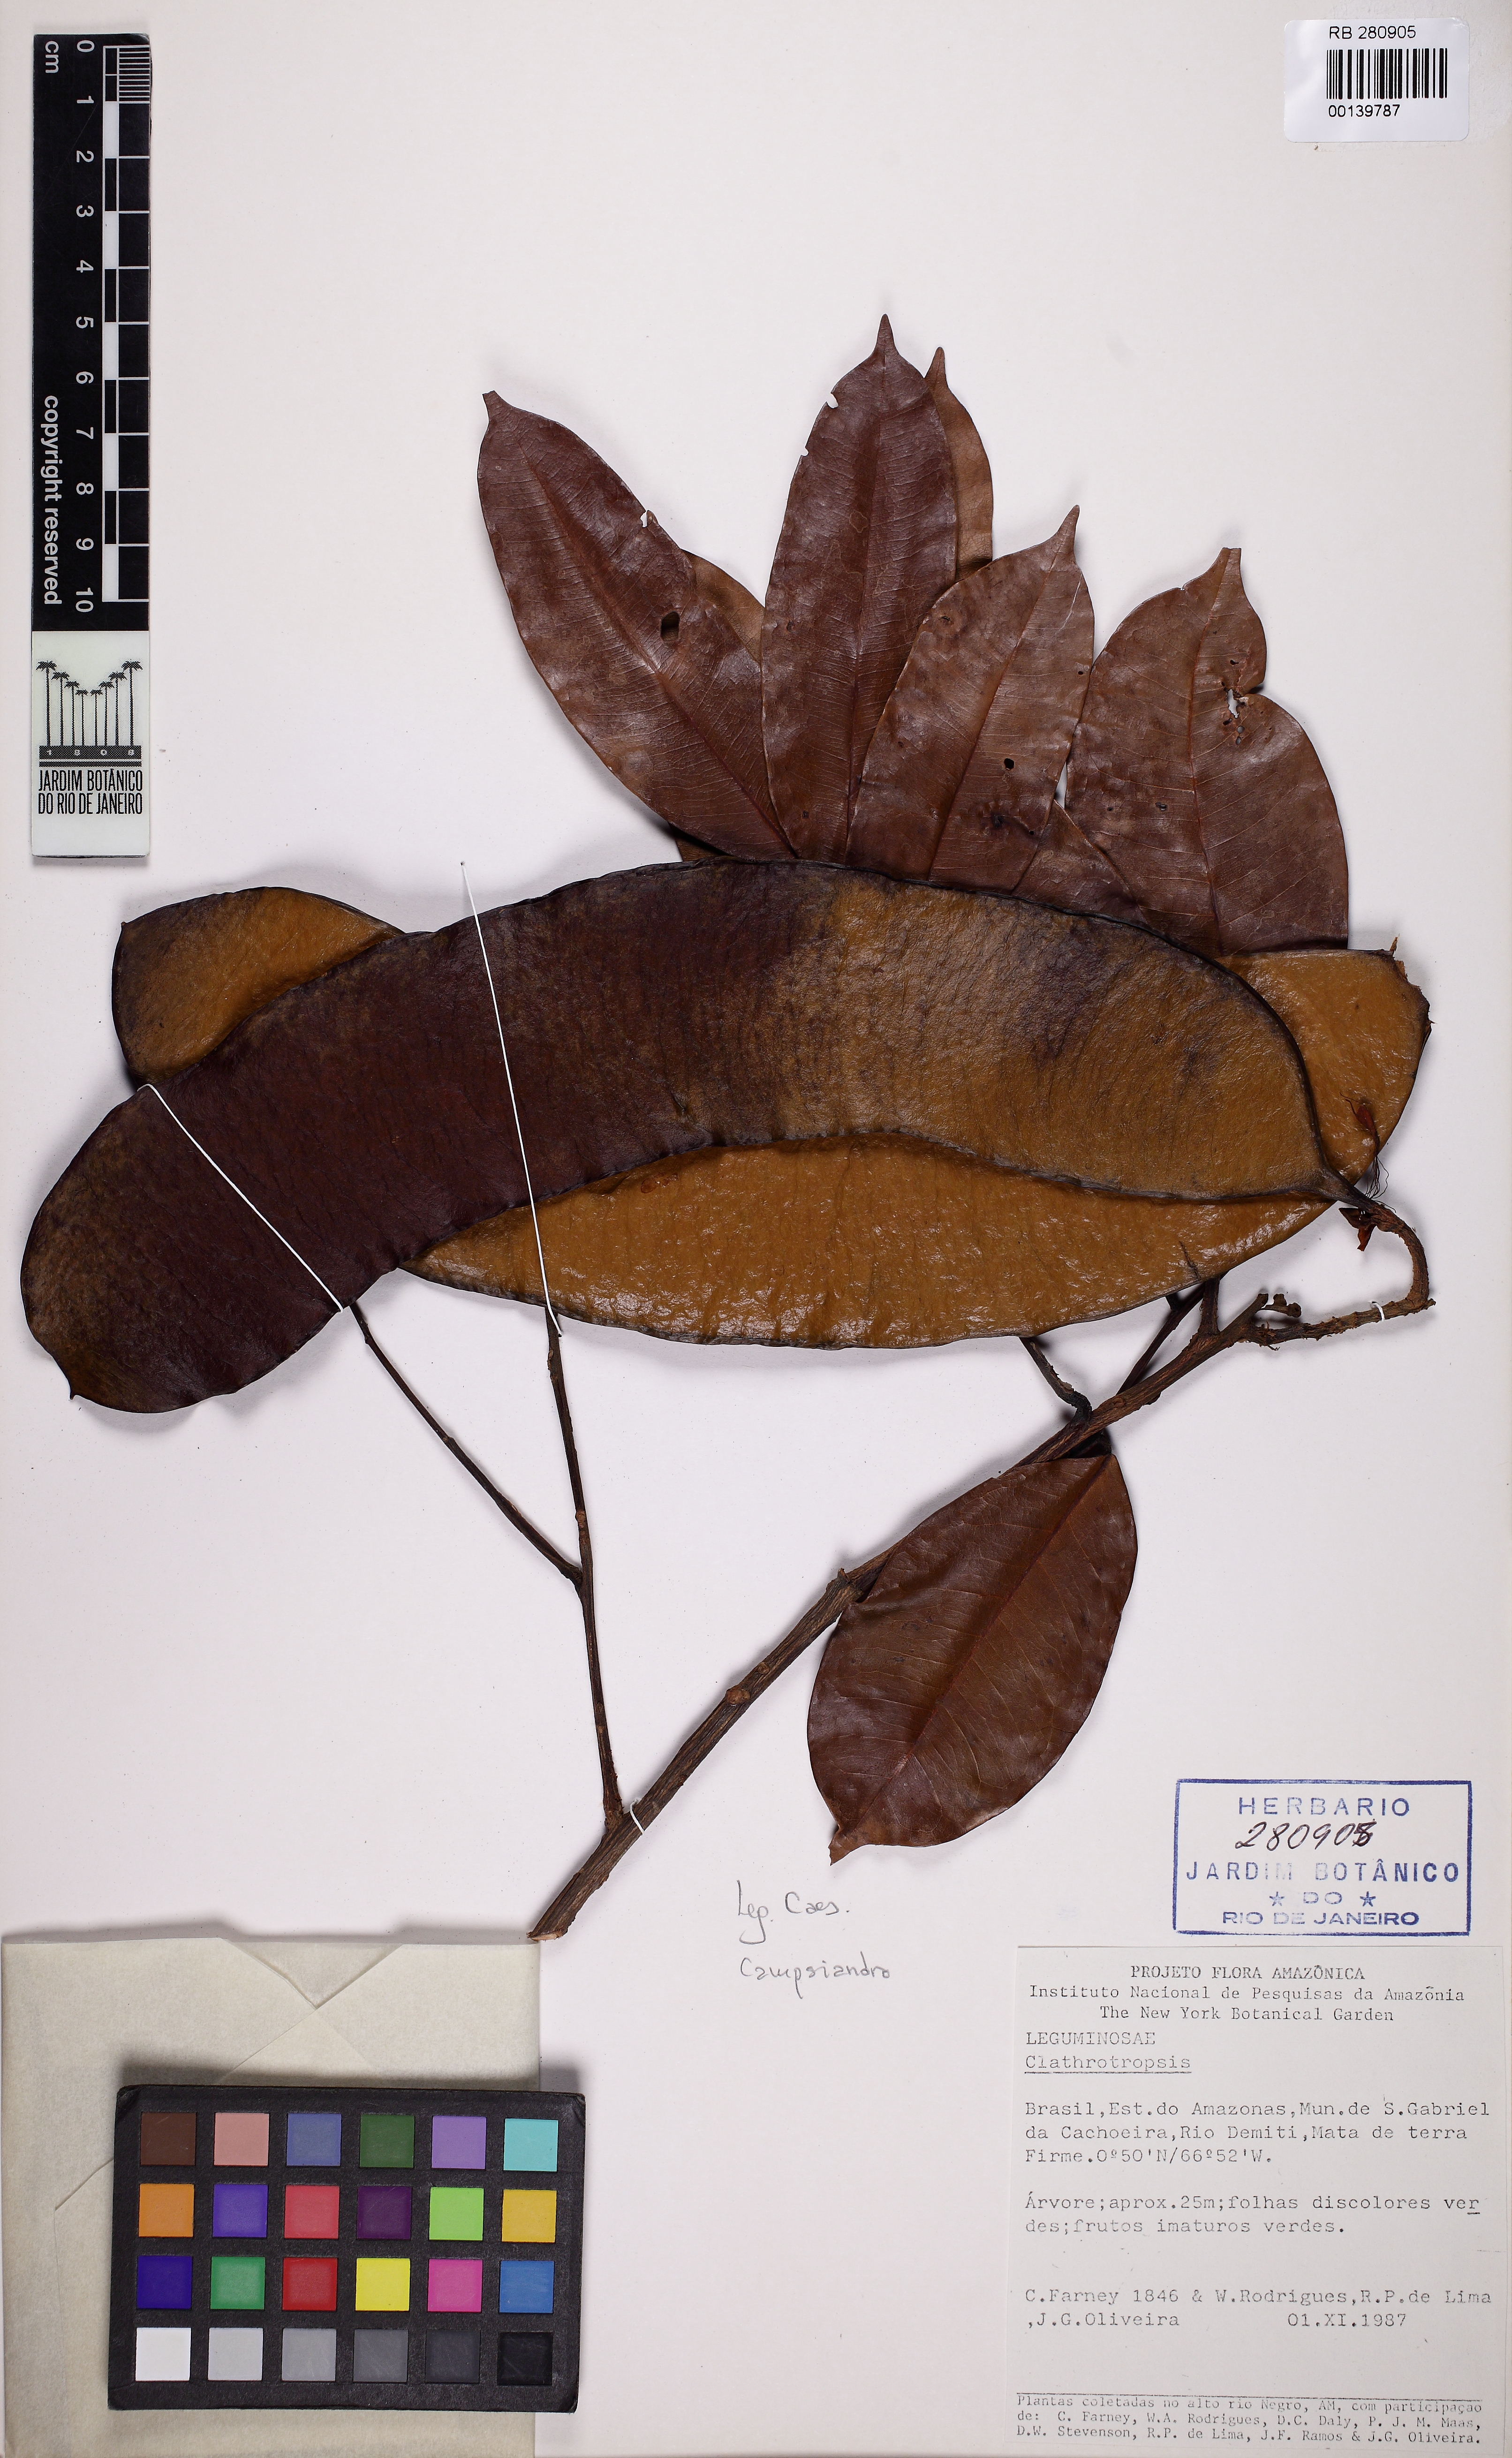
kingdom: Plantae
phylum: Tracheophyta
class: Magnoliopsida
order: Fabales
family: Fabaceae
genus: Clathrotropis
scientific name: Clathrotropis
